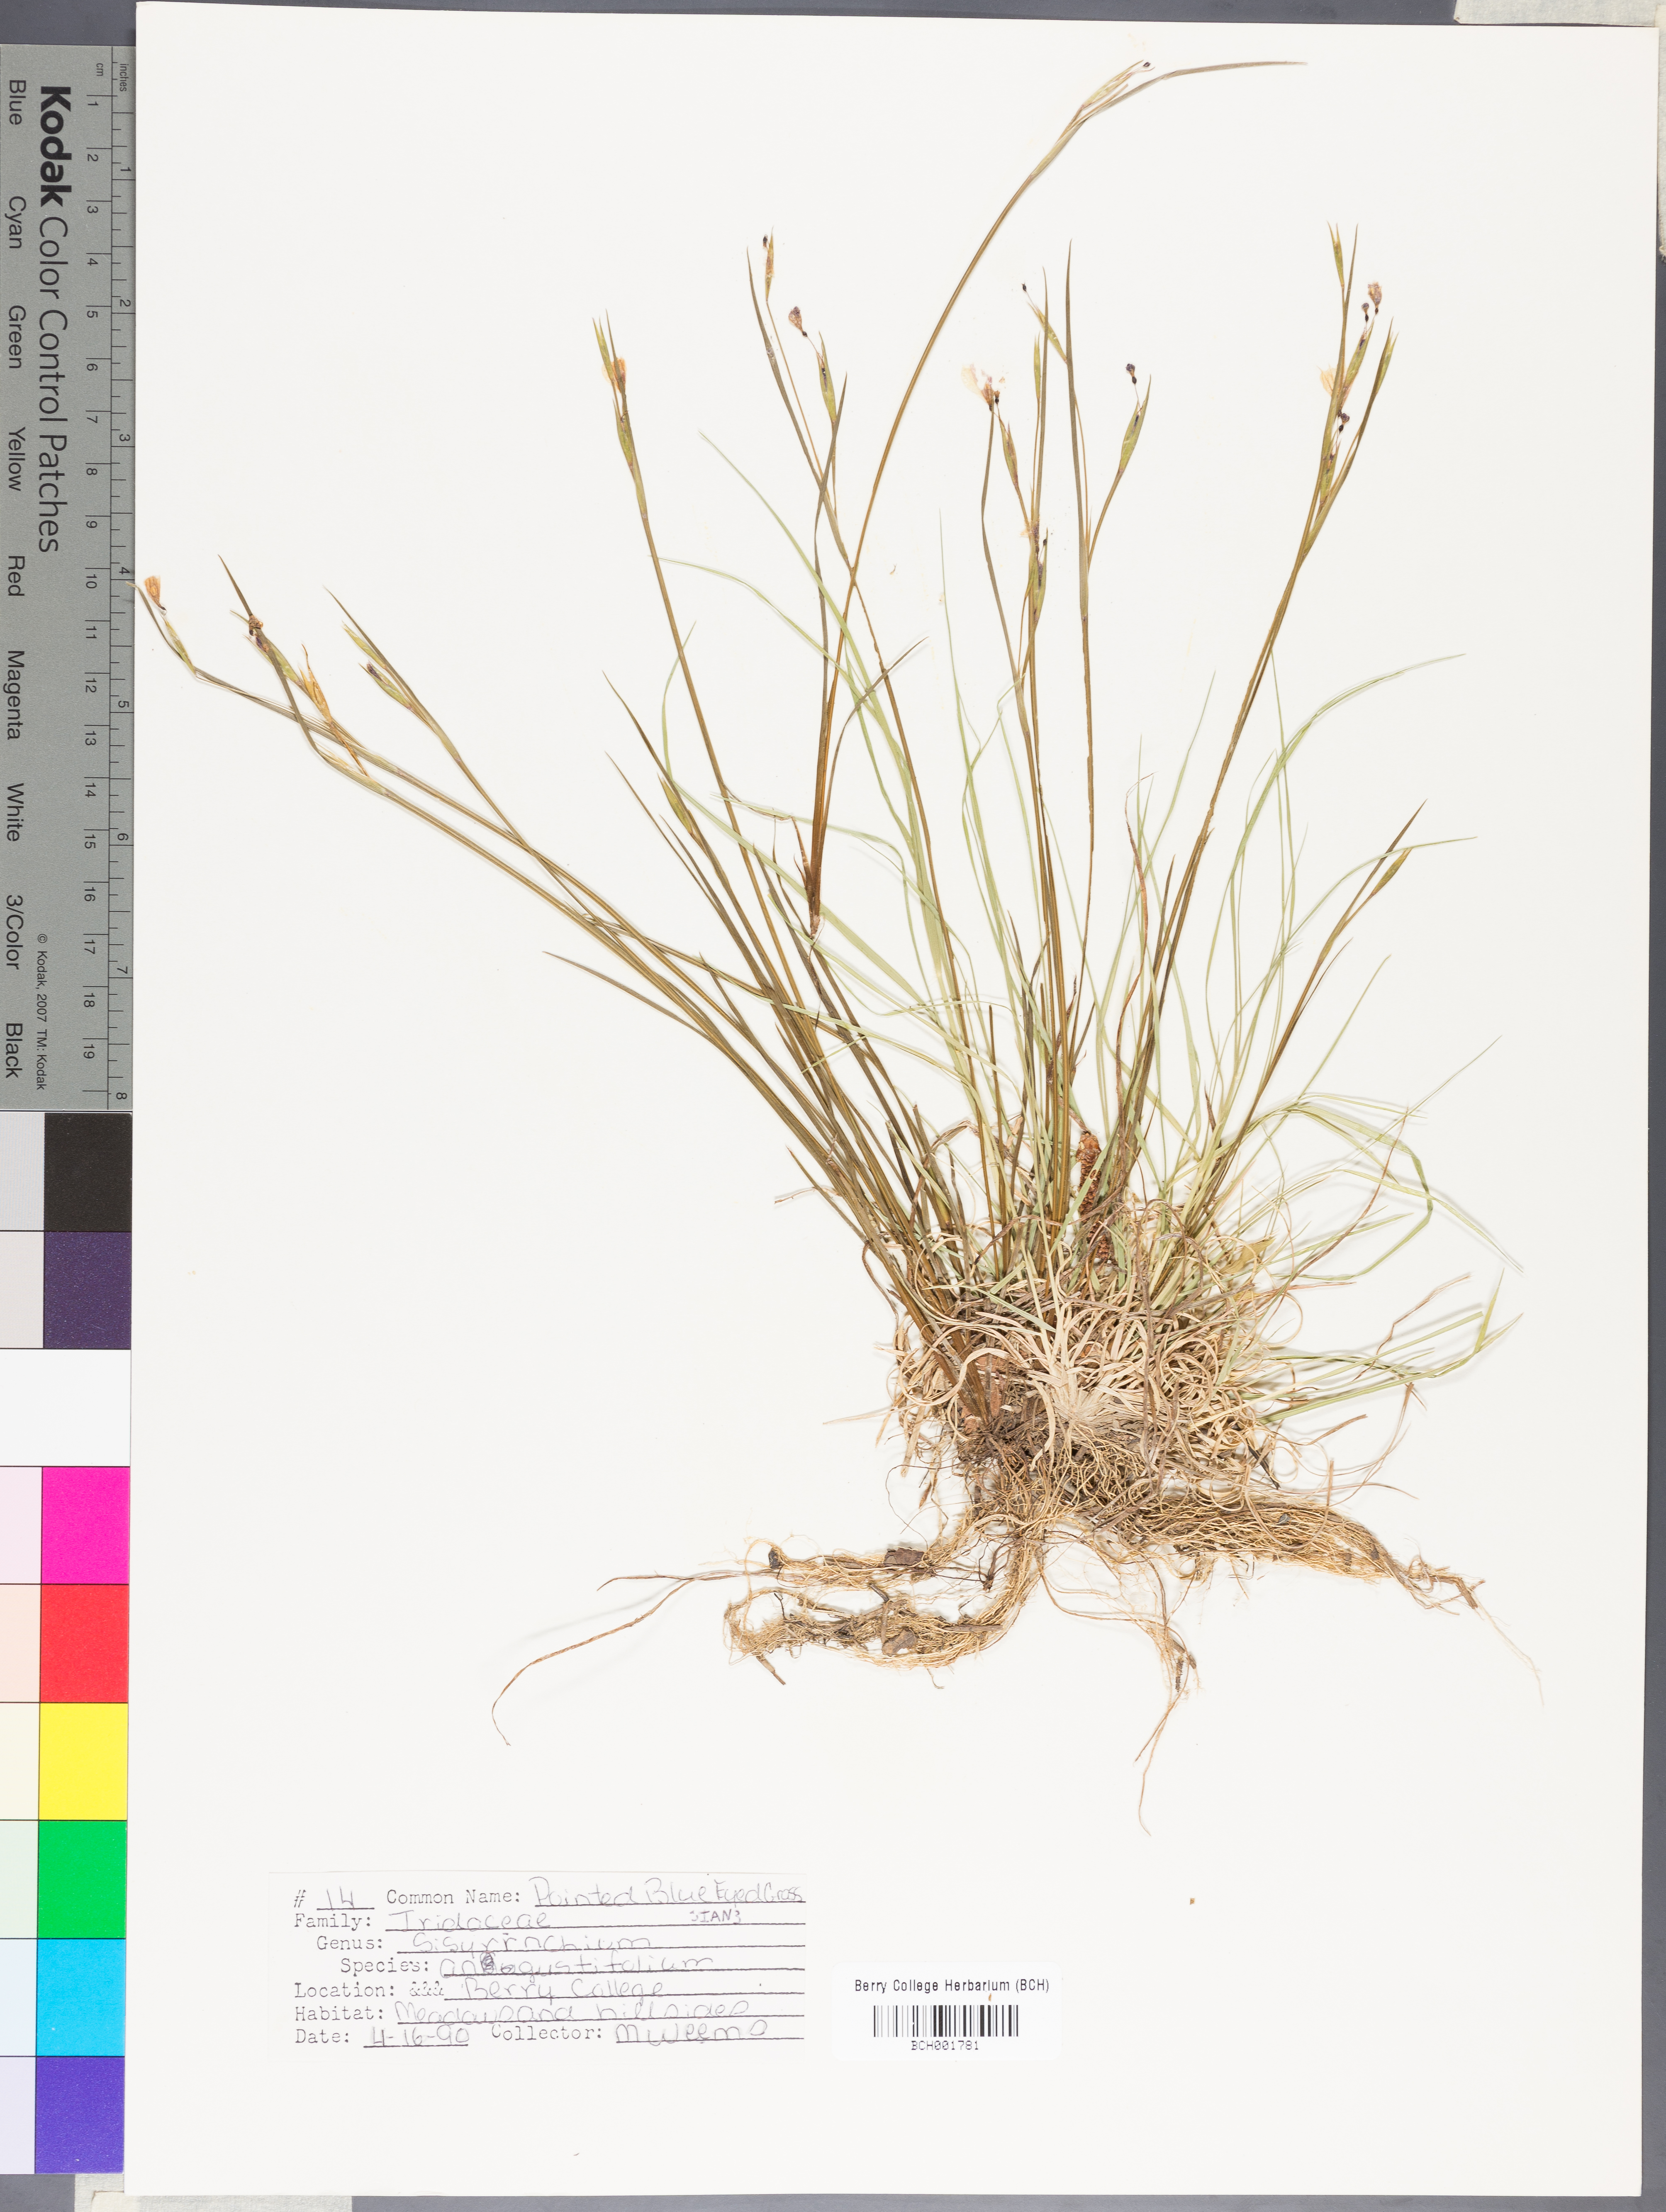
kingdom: Plantae
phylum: Tracheophyta
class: Liliopsida
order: Asparagales
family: Iridaceae
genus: Sisyrinchium
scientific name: Sisyrinchium angustifolium
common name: Narrow-leaf blue-eyed-grass
